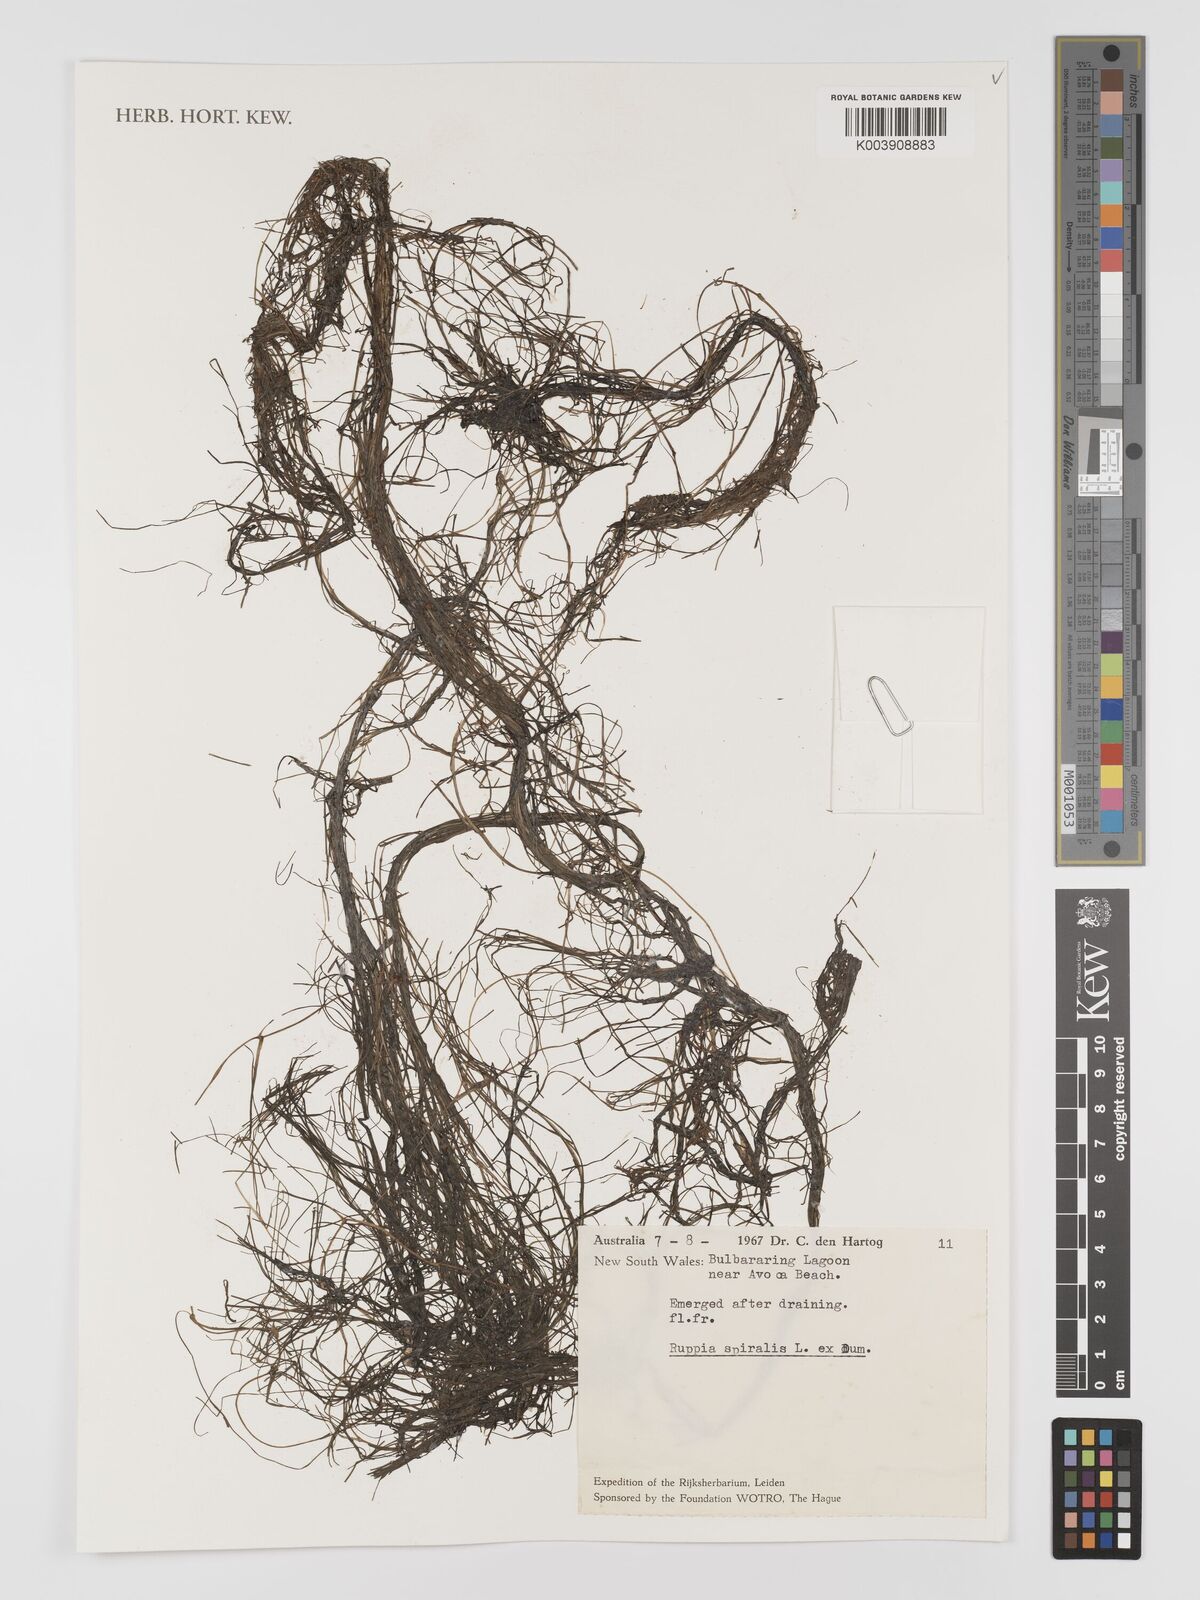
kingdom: Plantae
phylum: Tracheophyta
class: Liliopsida
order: Alismatales
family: Ruppiaceae
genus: Ruppia
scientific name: Ruppia
